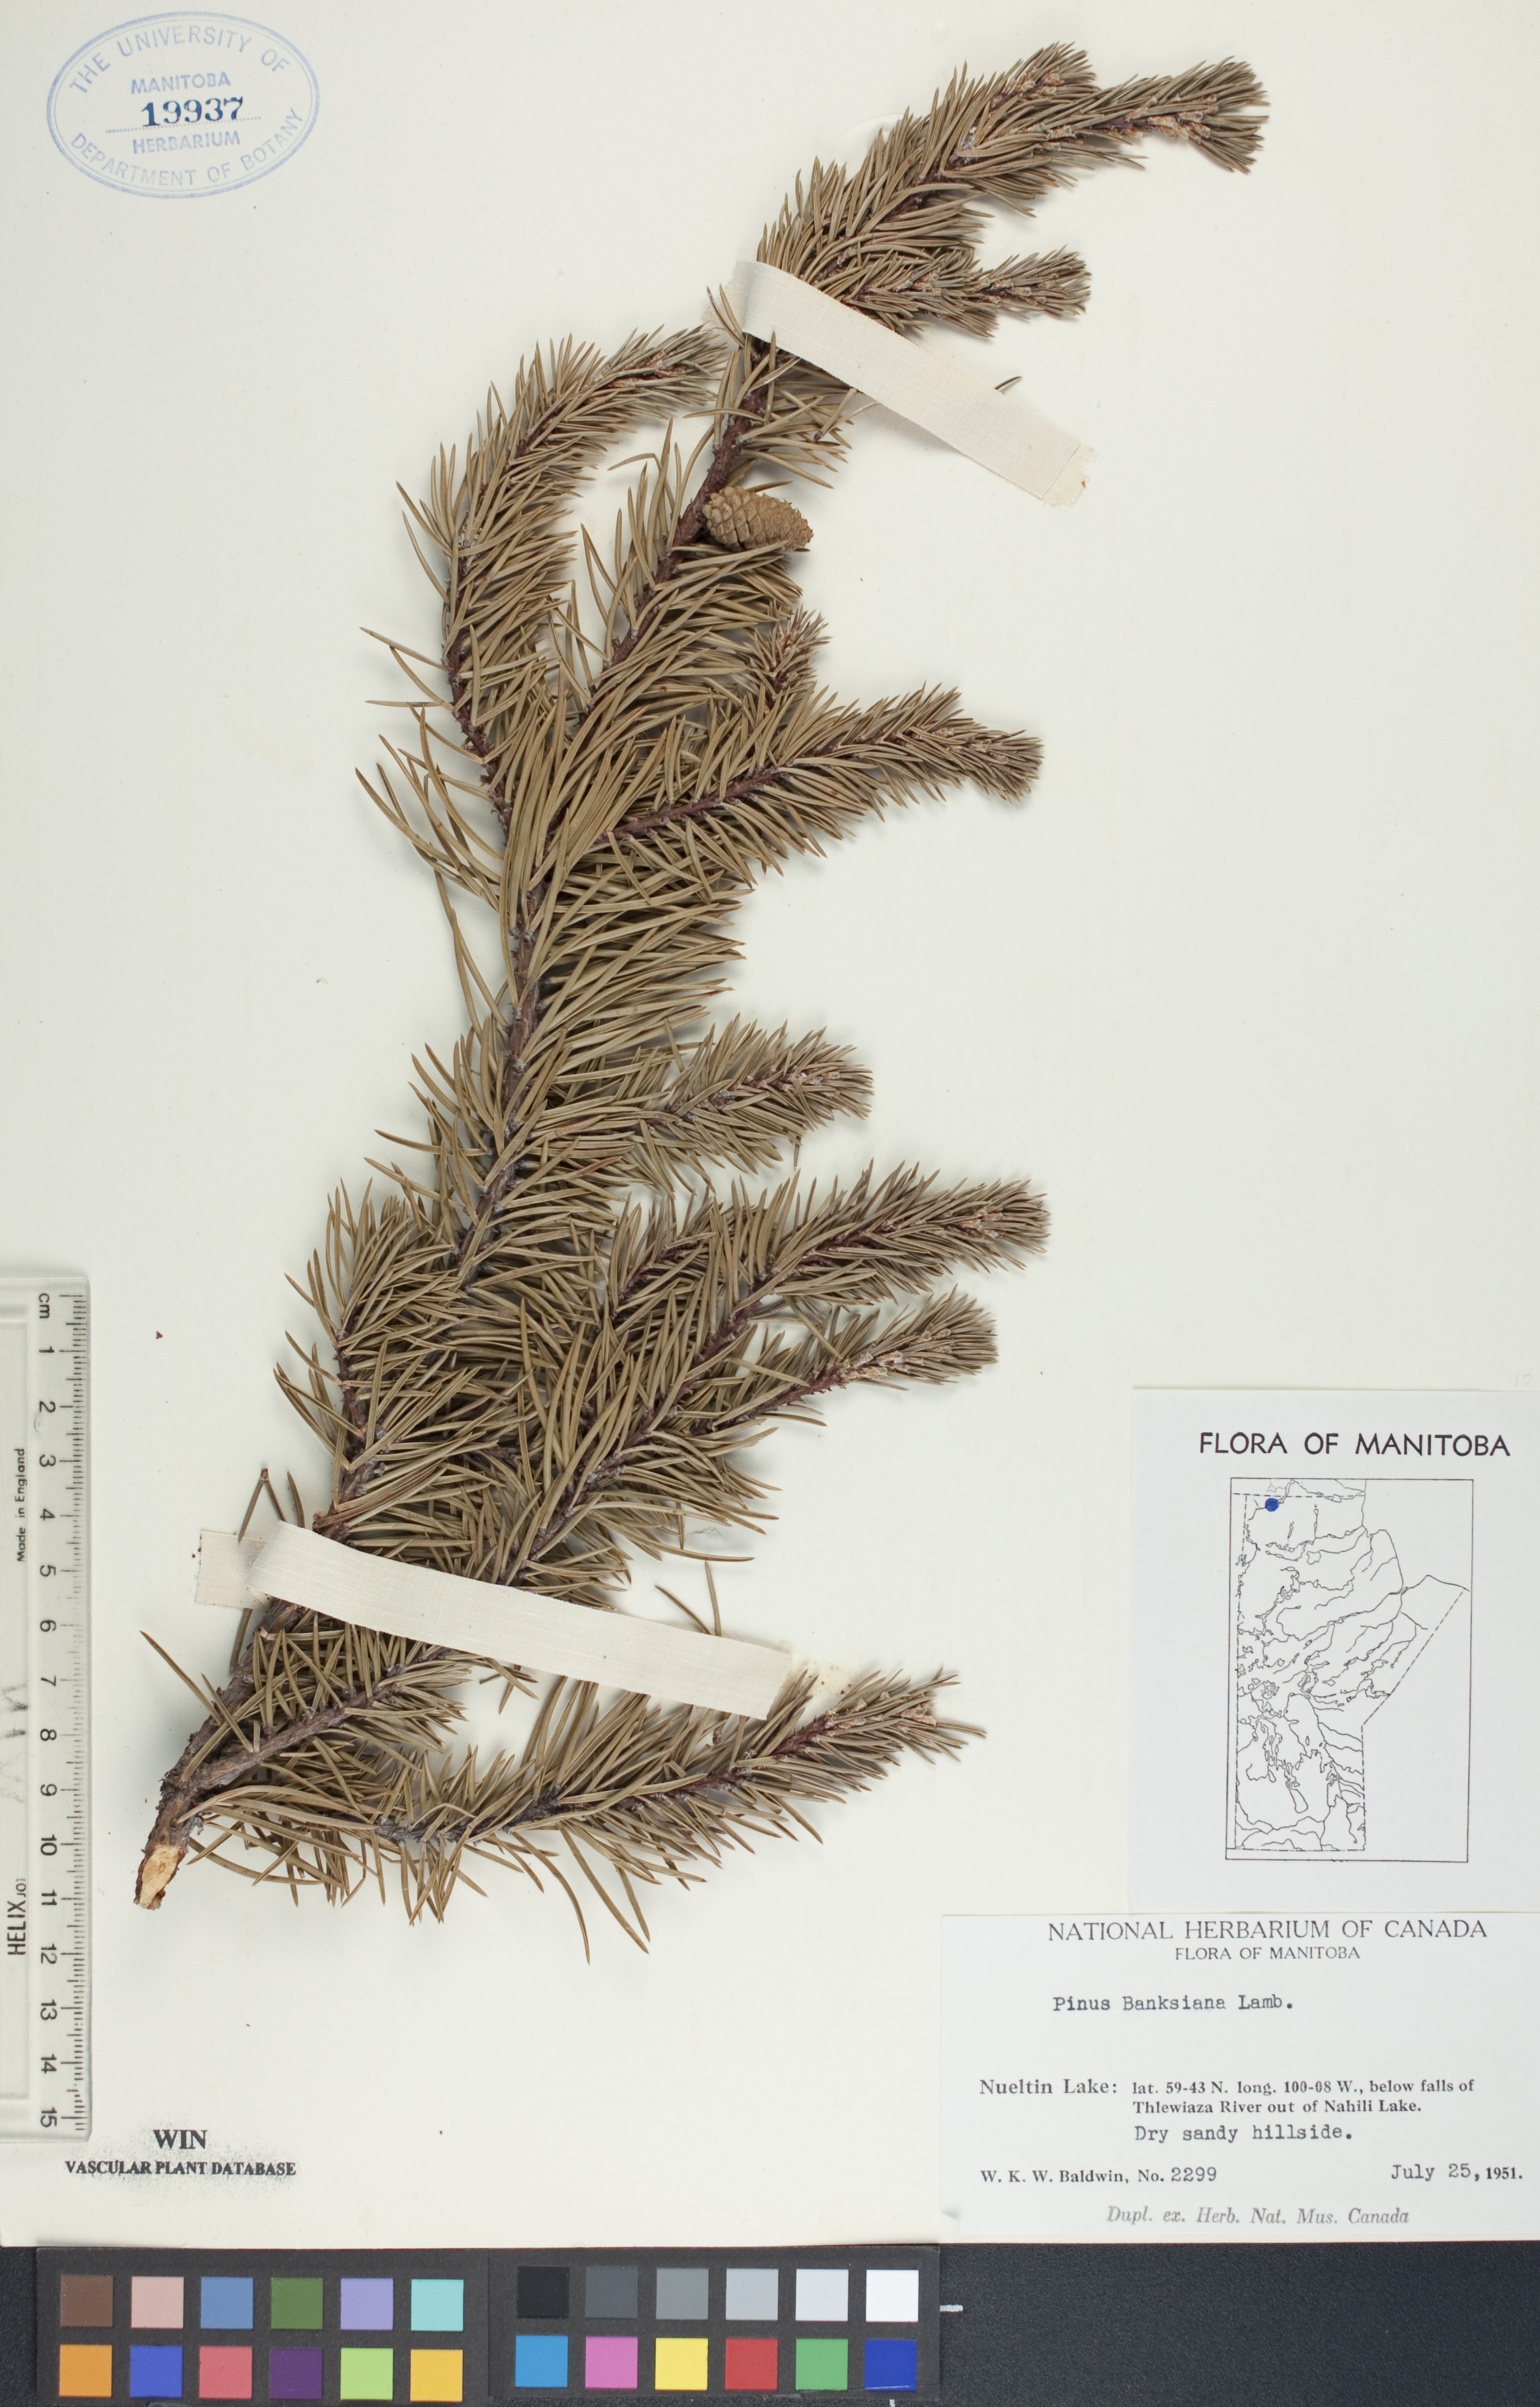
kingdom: Plantae
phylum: Tracheophyta
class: Pinopsida
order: Pinales
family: Pinaceae
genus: Pinus
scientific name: Pinus banksiana
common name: Jack pine
